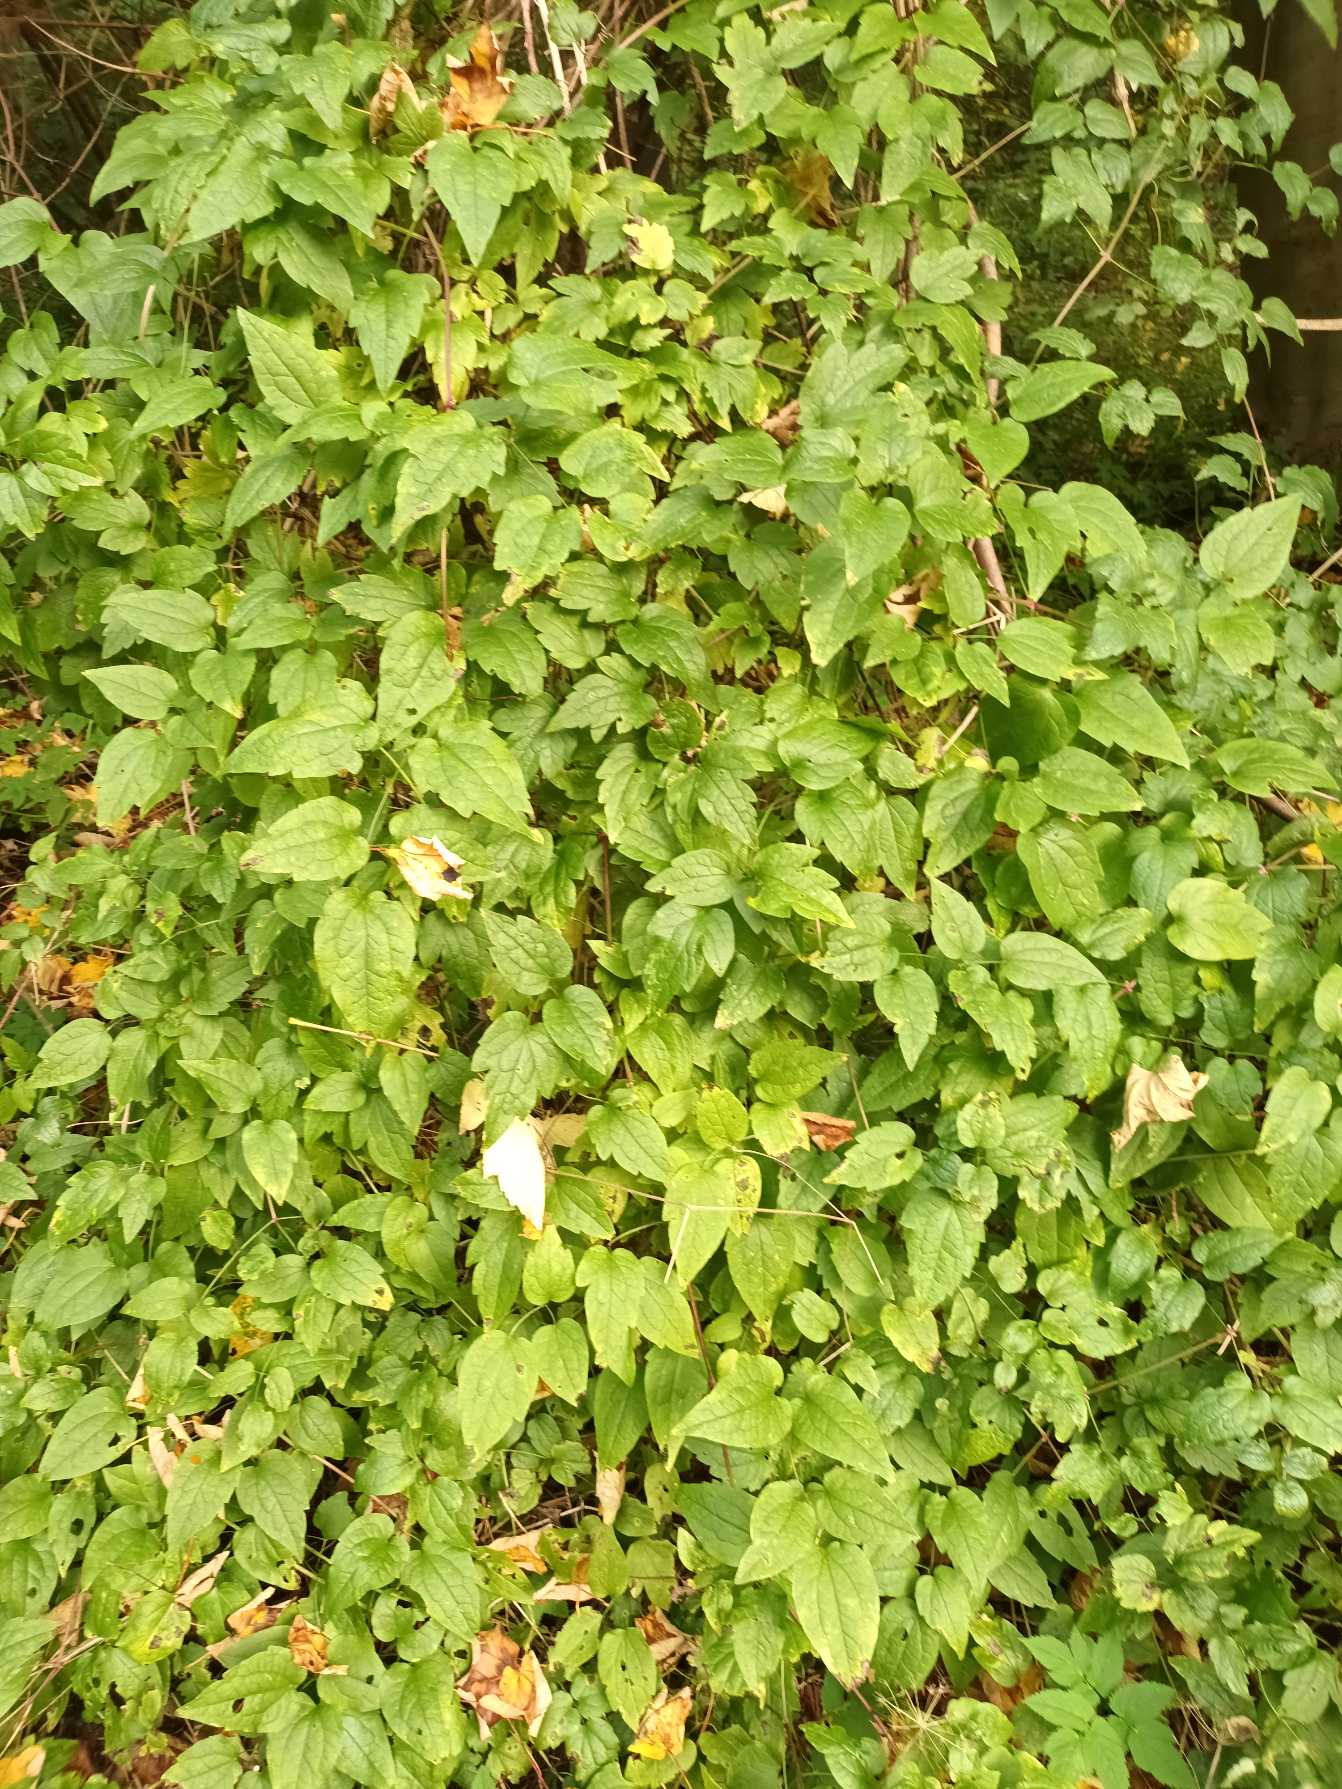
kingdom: Plantae
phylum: Tracheophyta
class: Magnoliopsida
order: Ranunculales
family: Ranunculaceae
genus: Clematis
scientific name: Clematis vitalba
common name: Skovranke
